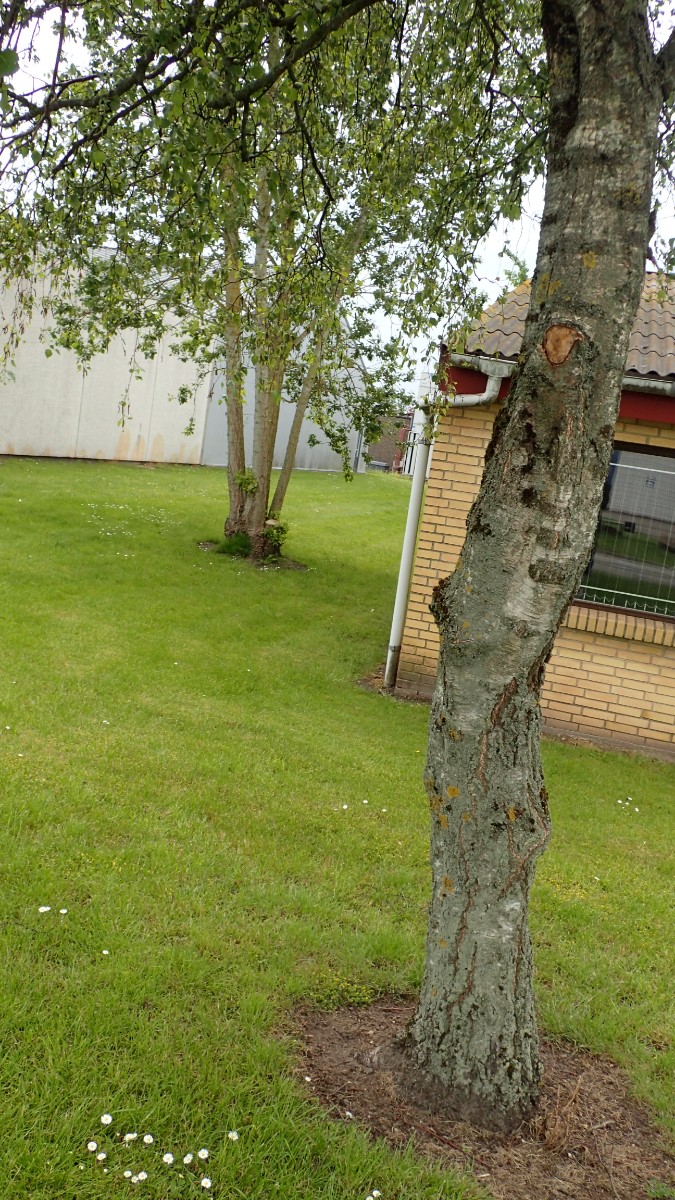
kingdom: Fungi
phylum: Basidiomycota
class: Agaricomycetes
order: Agaricales
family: Tricholomataceae
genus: Tricholoma
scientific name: Tricholoma argyraceum
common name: spids ridderhat
